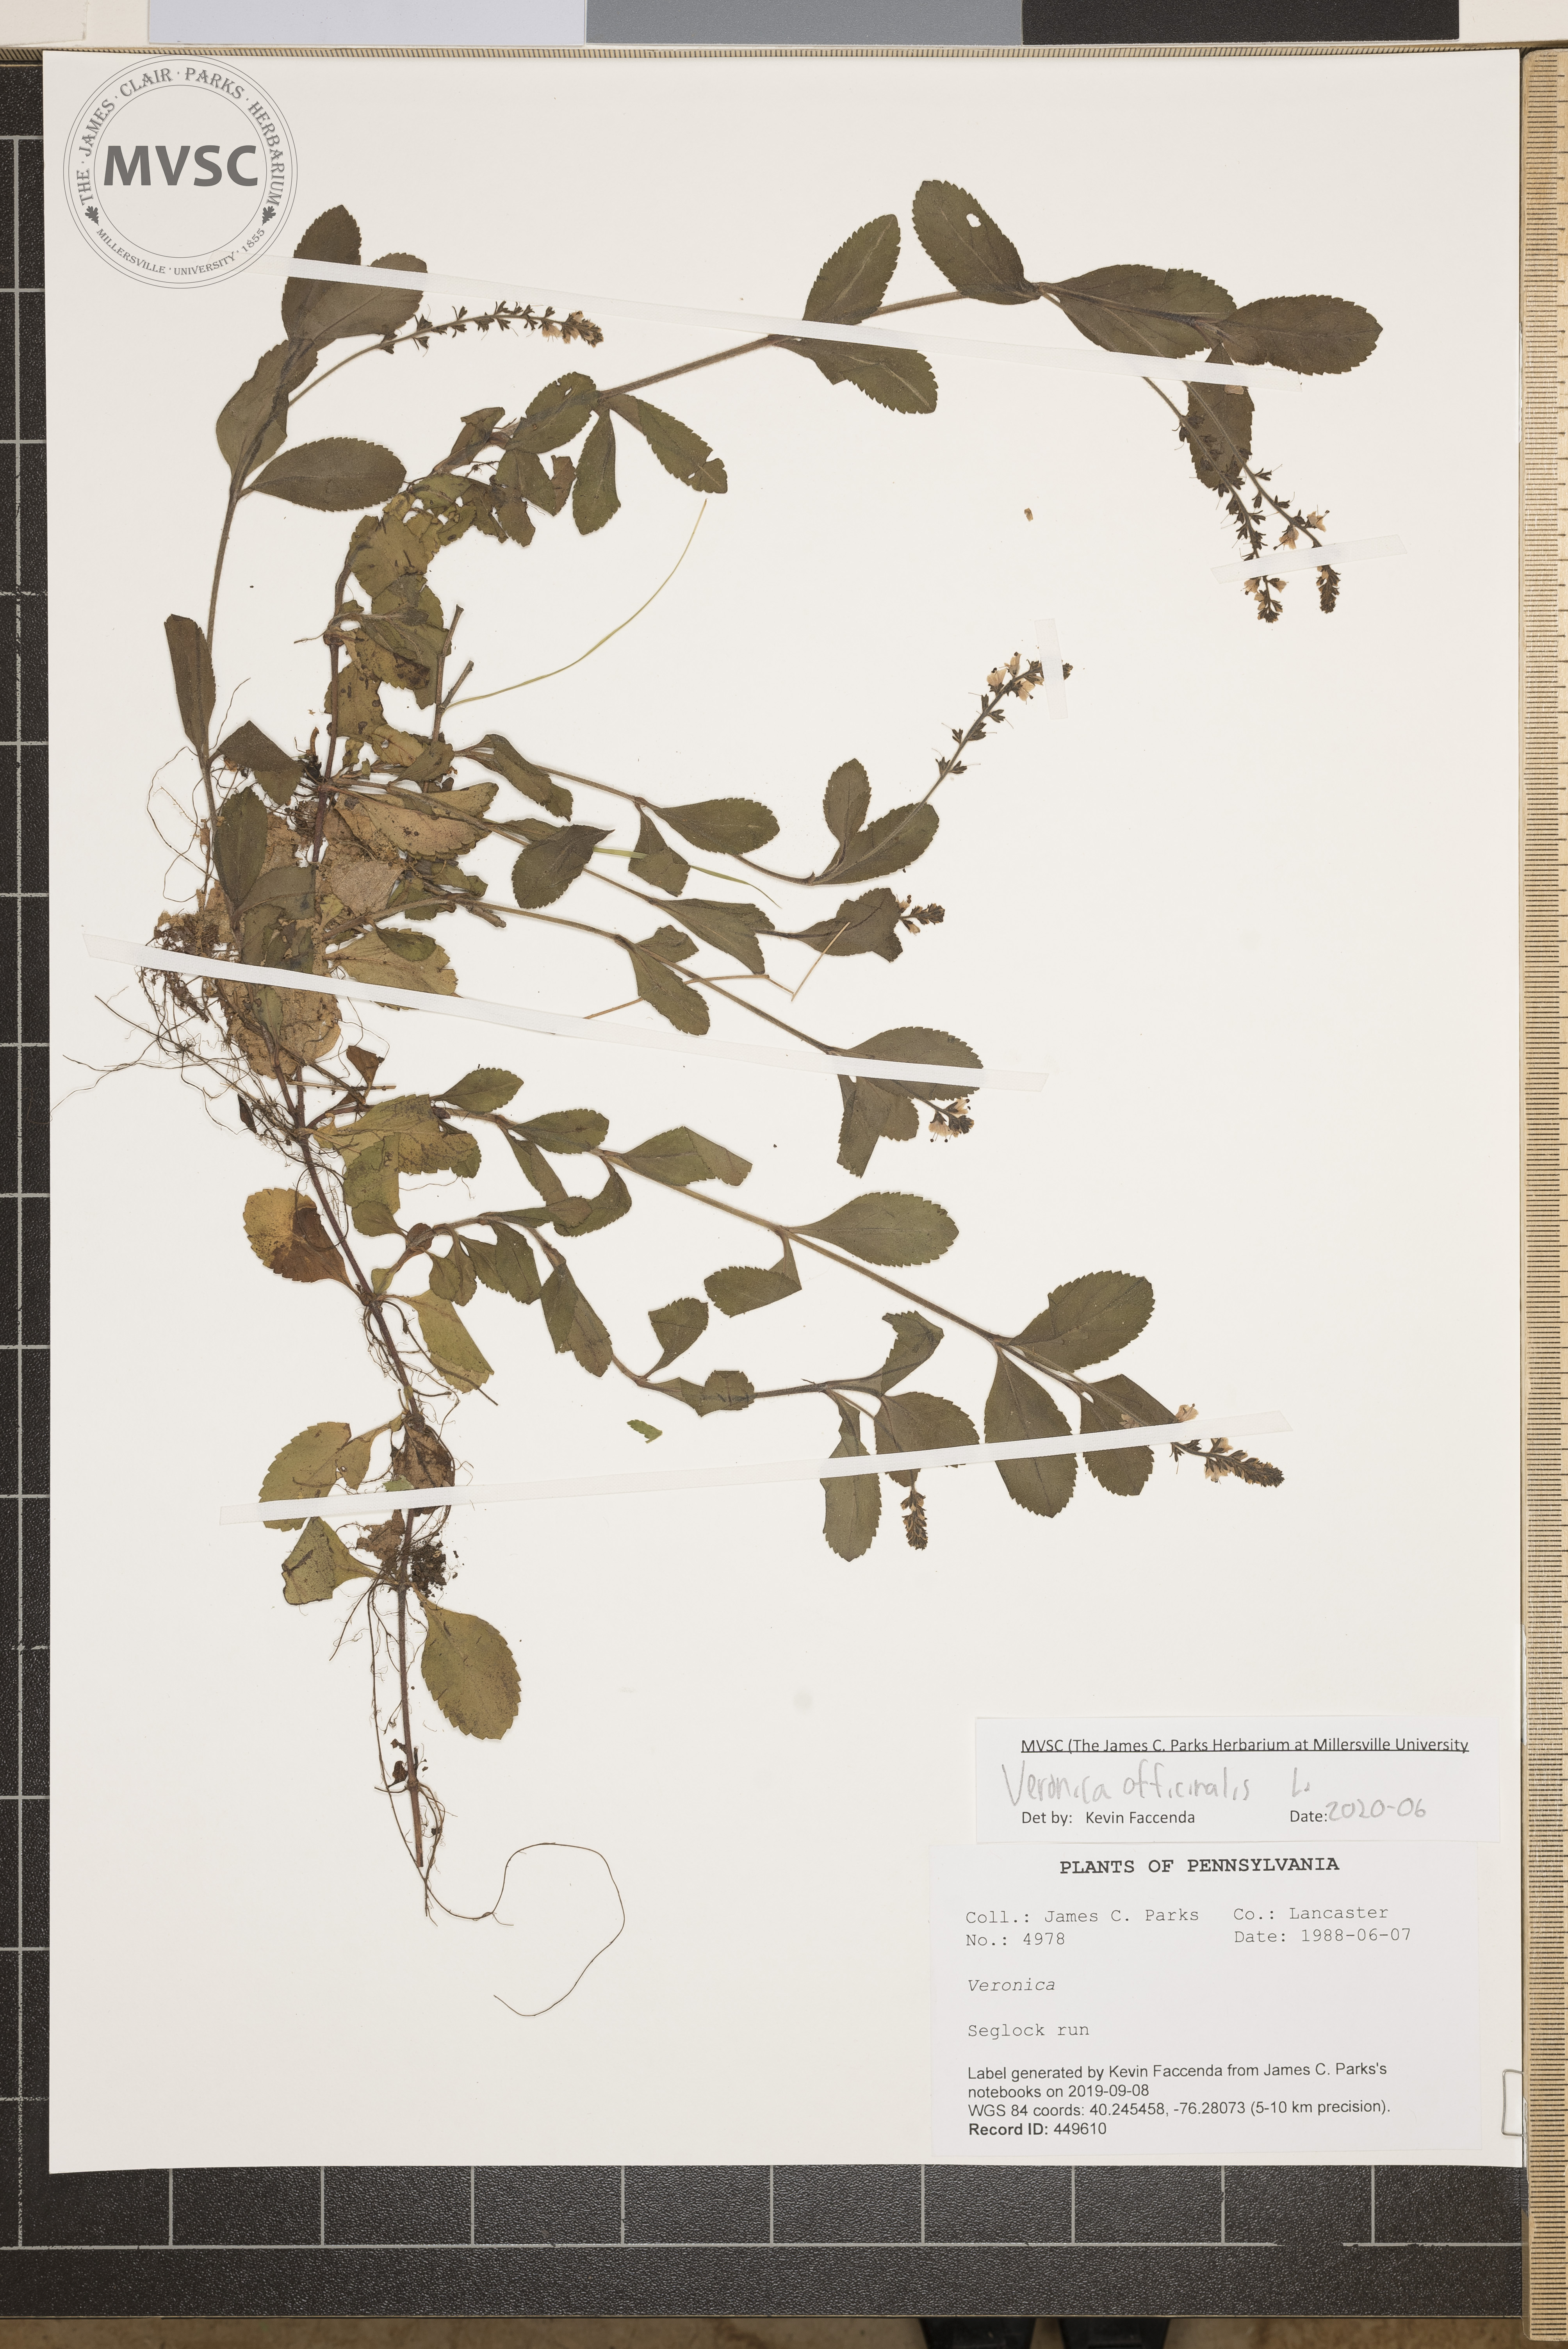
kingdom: Plantae
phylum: Tracheophyta
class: Magnoliopsida
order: Lamiales
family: Plantaginaceae
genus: Veronica
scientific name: Veronica officinalis
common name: Common speedwell
